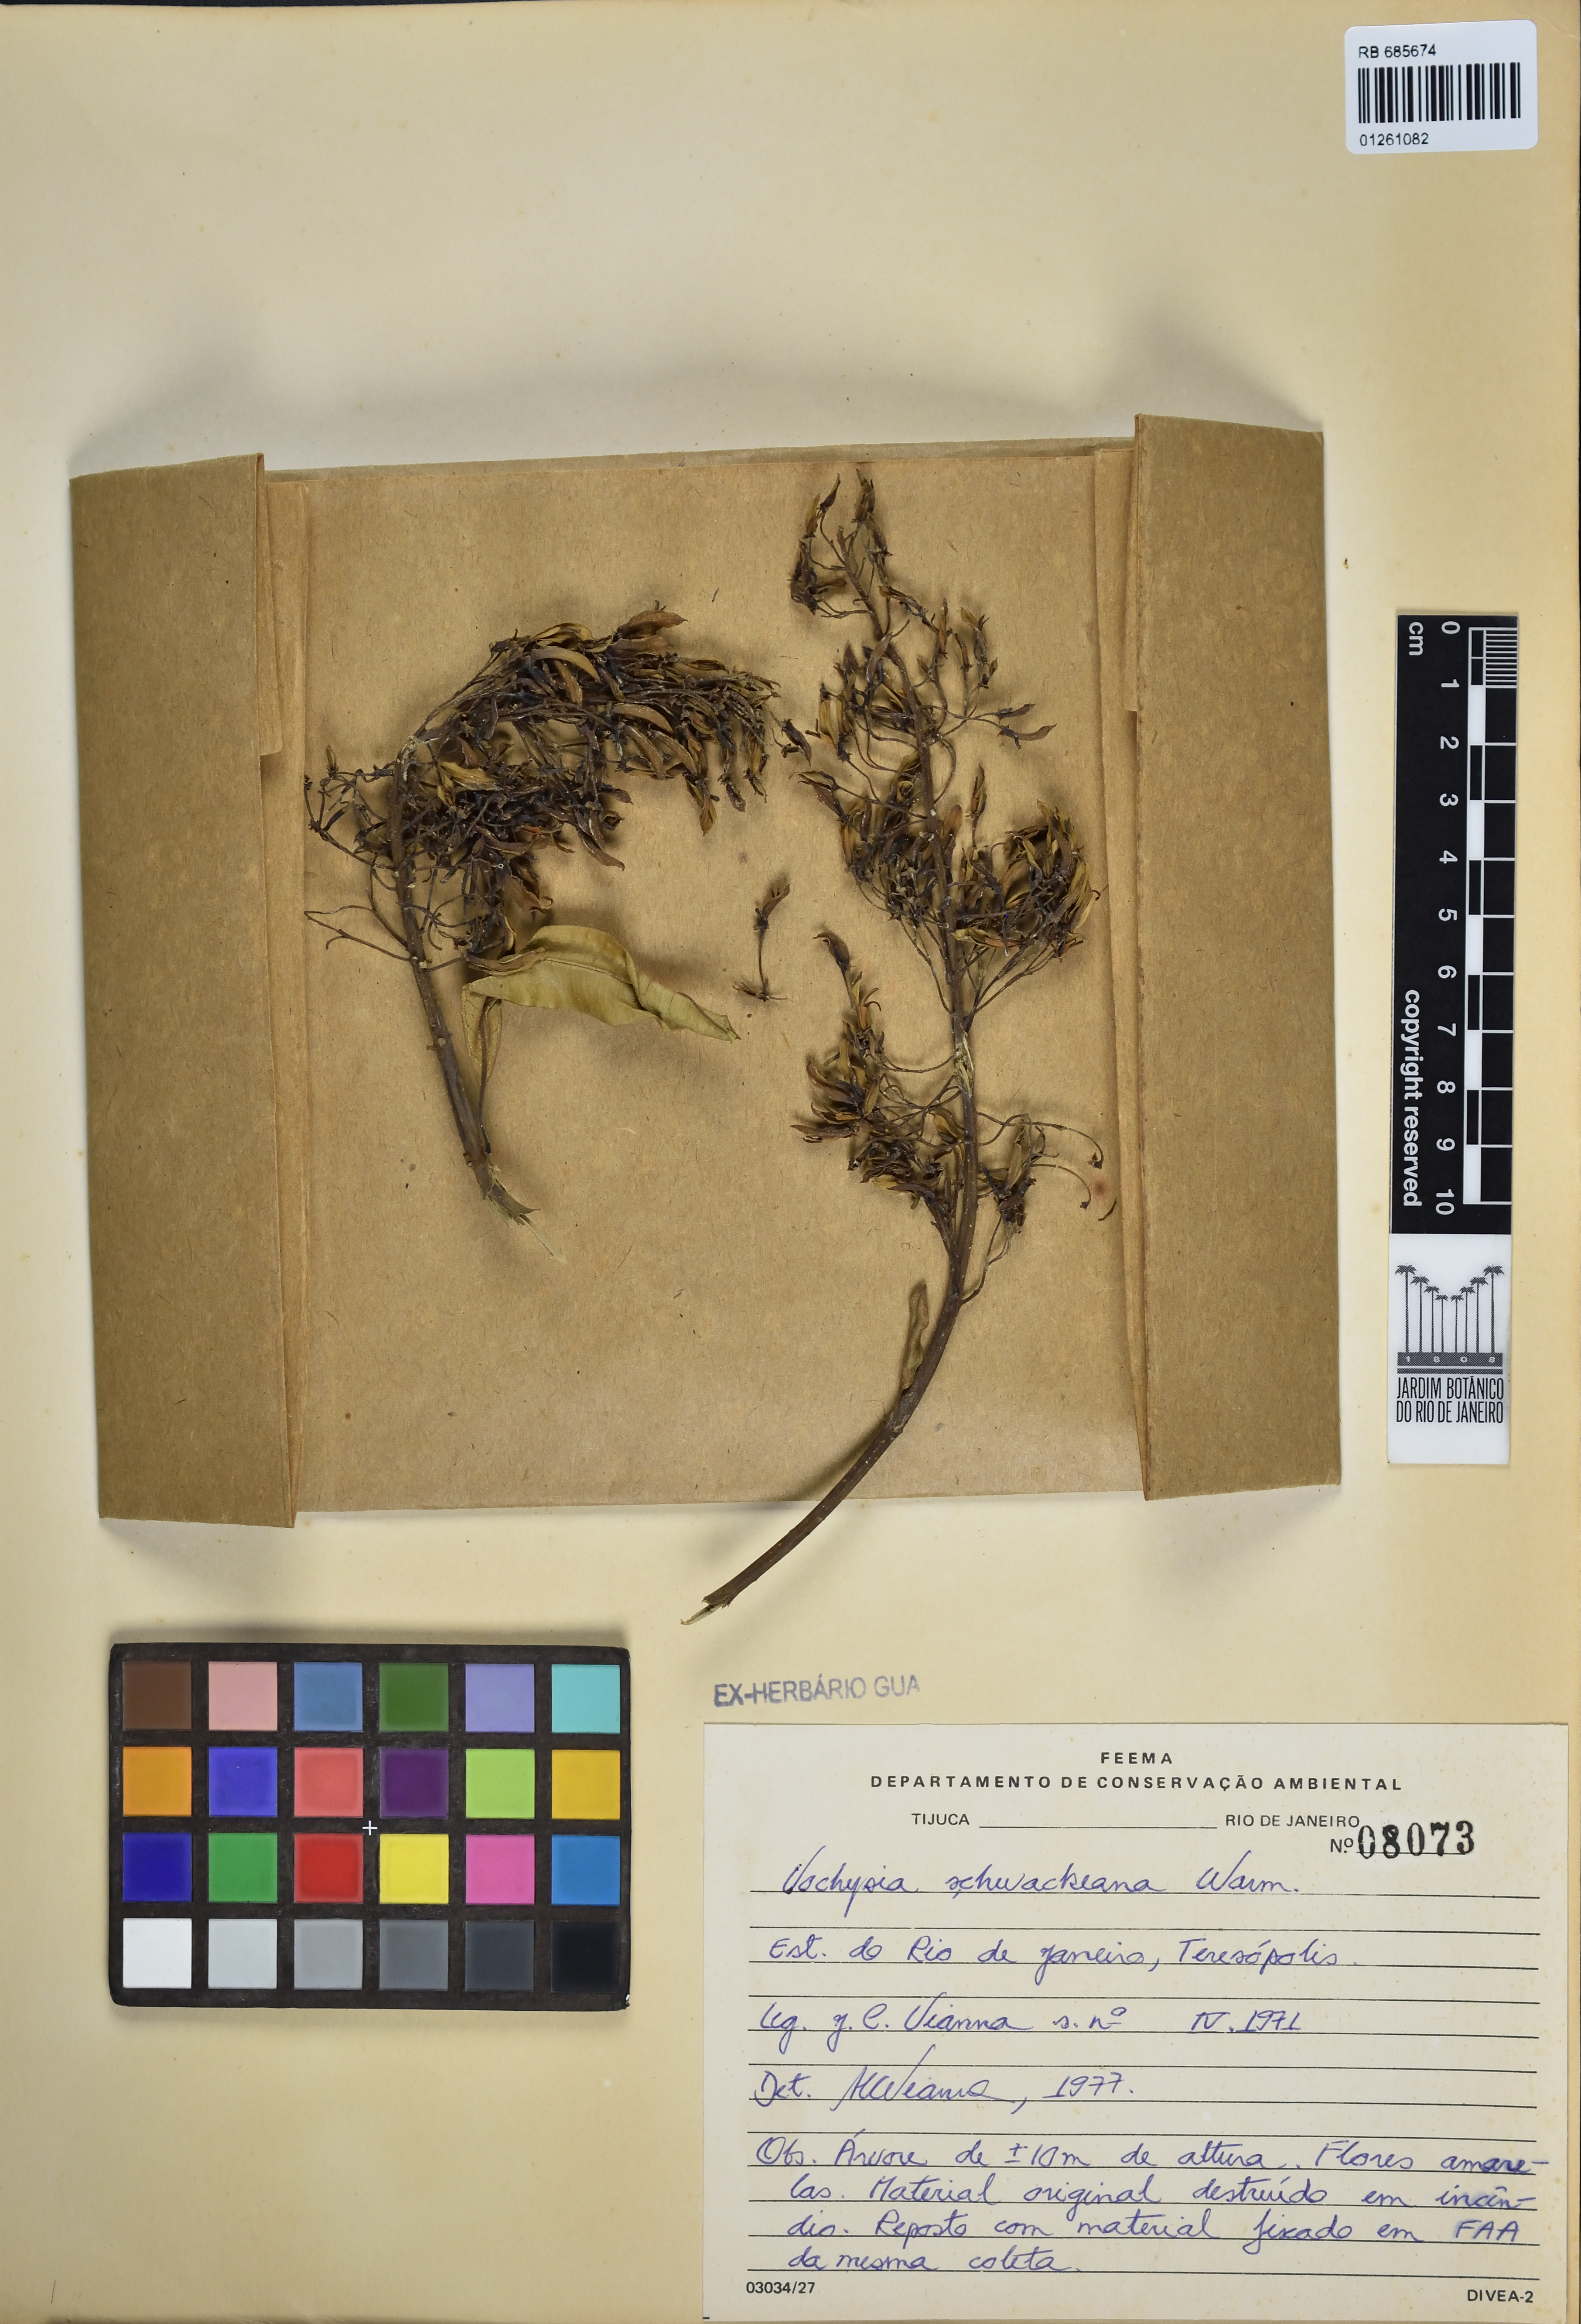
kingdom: Plantae
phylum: Tracheophyta
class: Magnoliopsida
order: Myrtales
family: Vochysiaceae
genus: Vochysia
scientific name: Vochysia schwackeana
